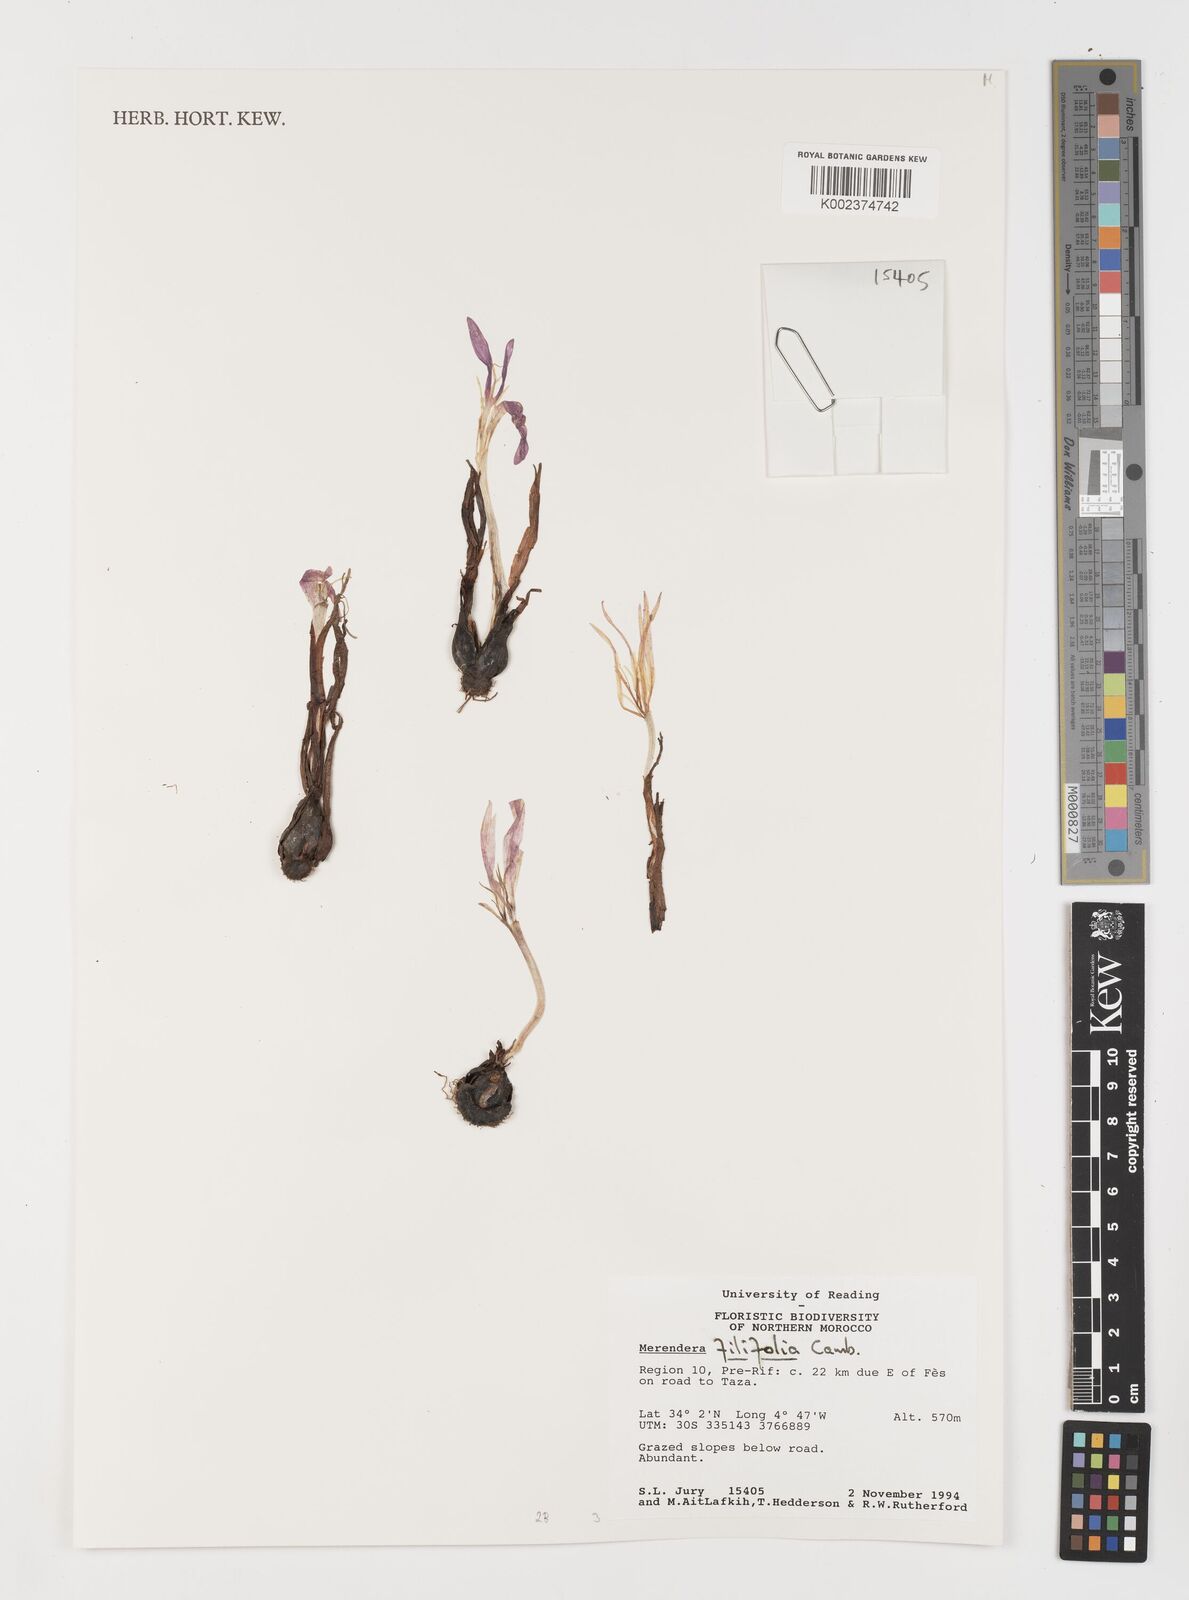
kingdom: Plantae
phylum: Tracheophyta
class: Liliopsida
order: Liliales
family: Colchicaceae
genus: Colchicum
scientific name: Colchicum filifolium
